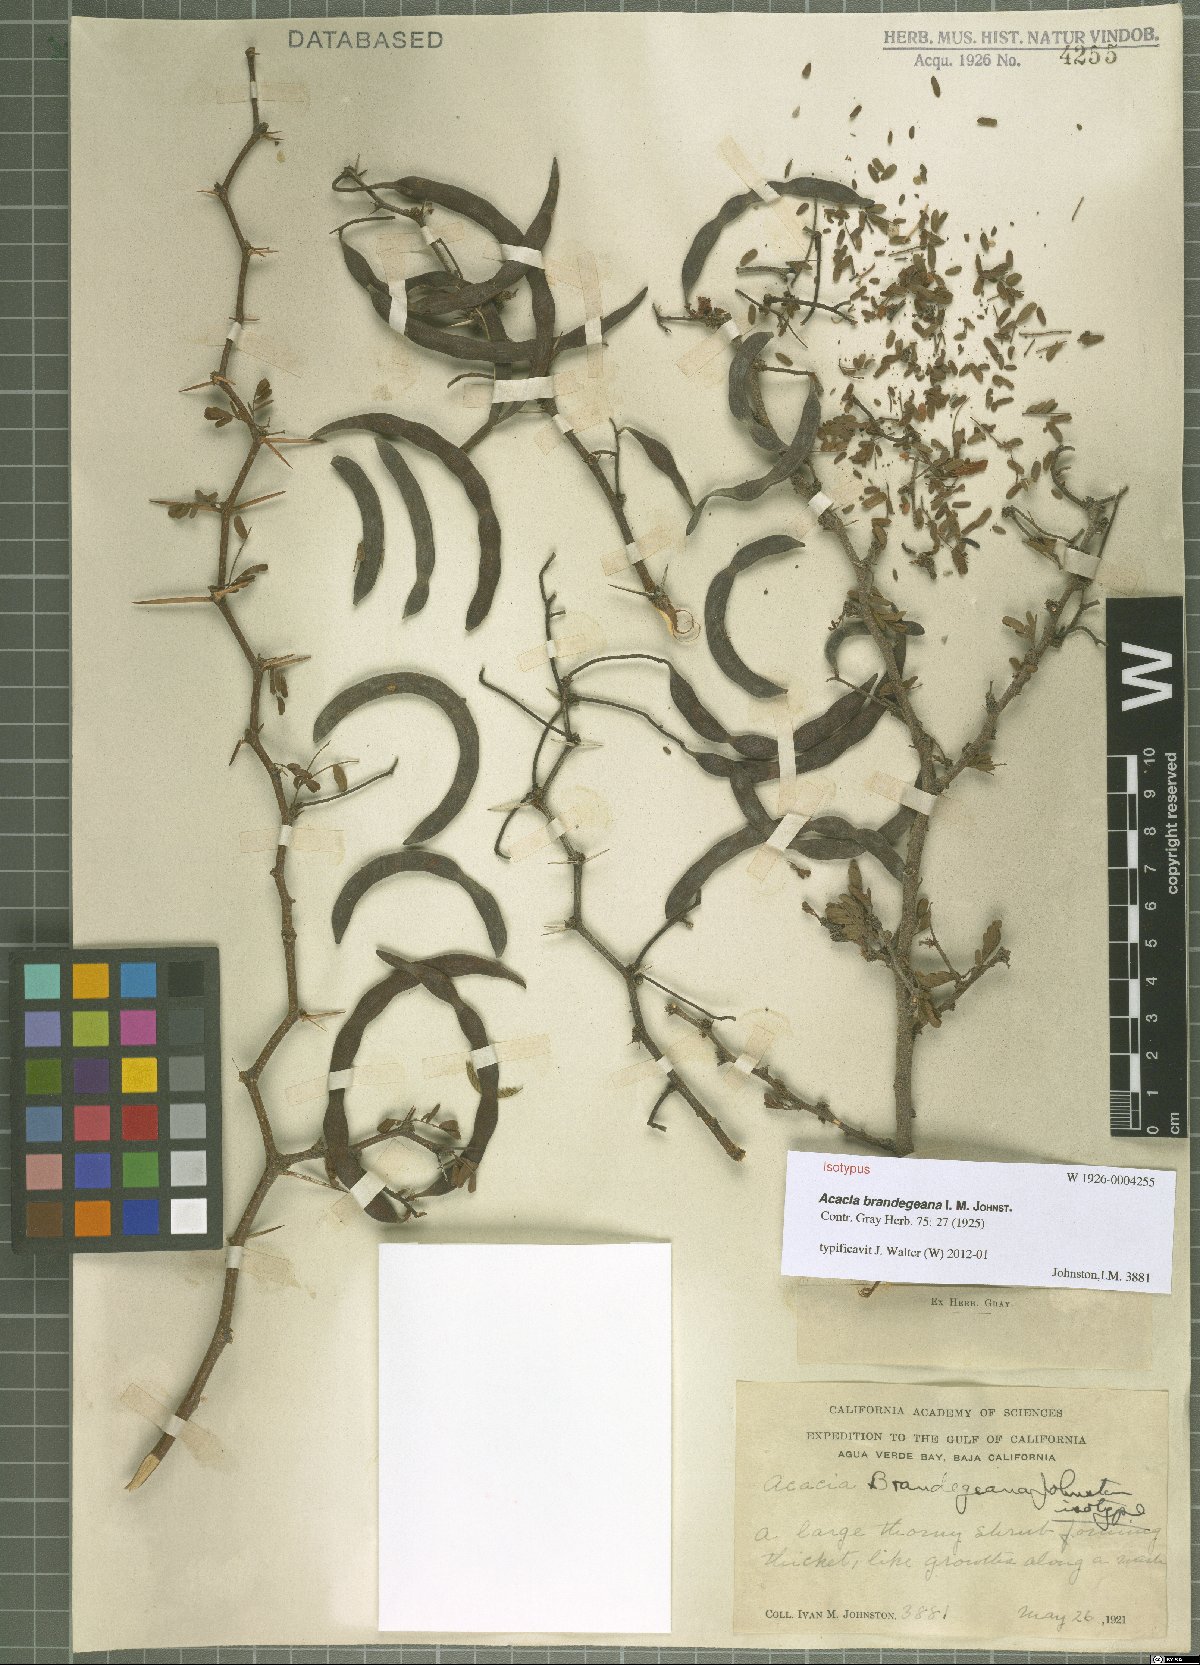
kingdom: Plantae
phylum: Tracheophyta
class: Magnoliopsida
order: Fabales
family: Fabaceae
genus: Vachellia
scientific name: Vachellia brandegeana
